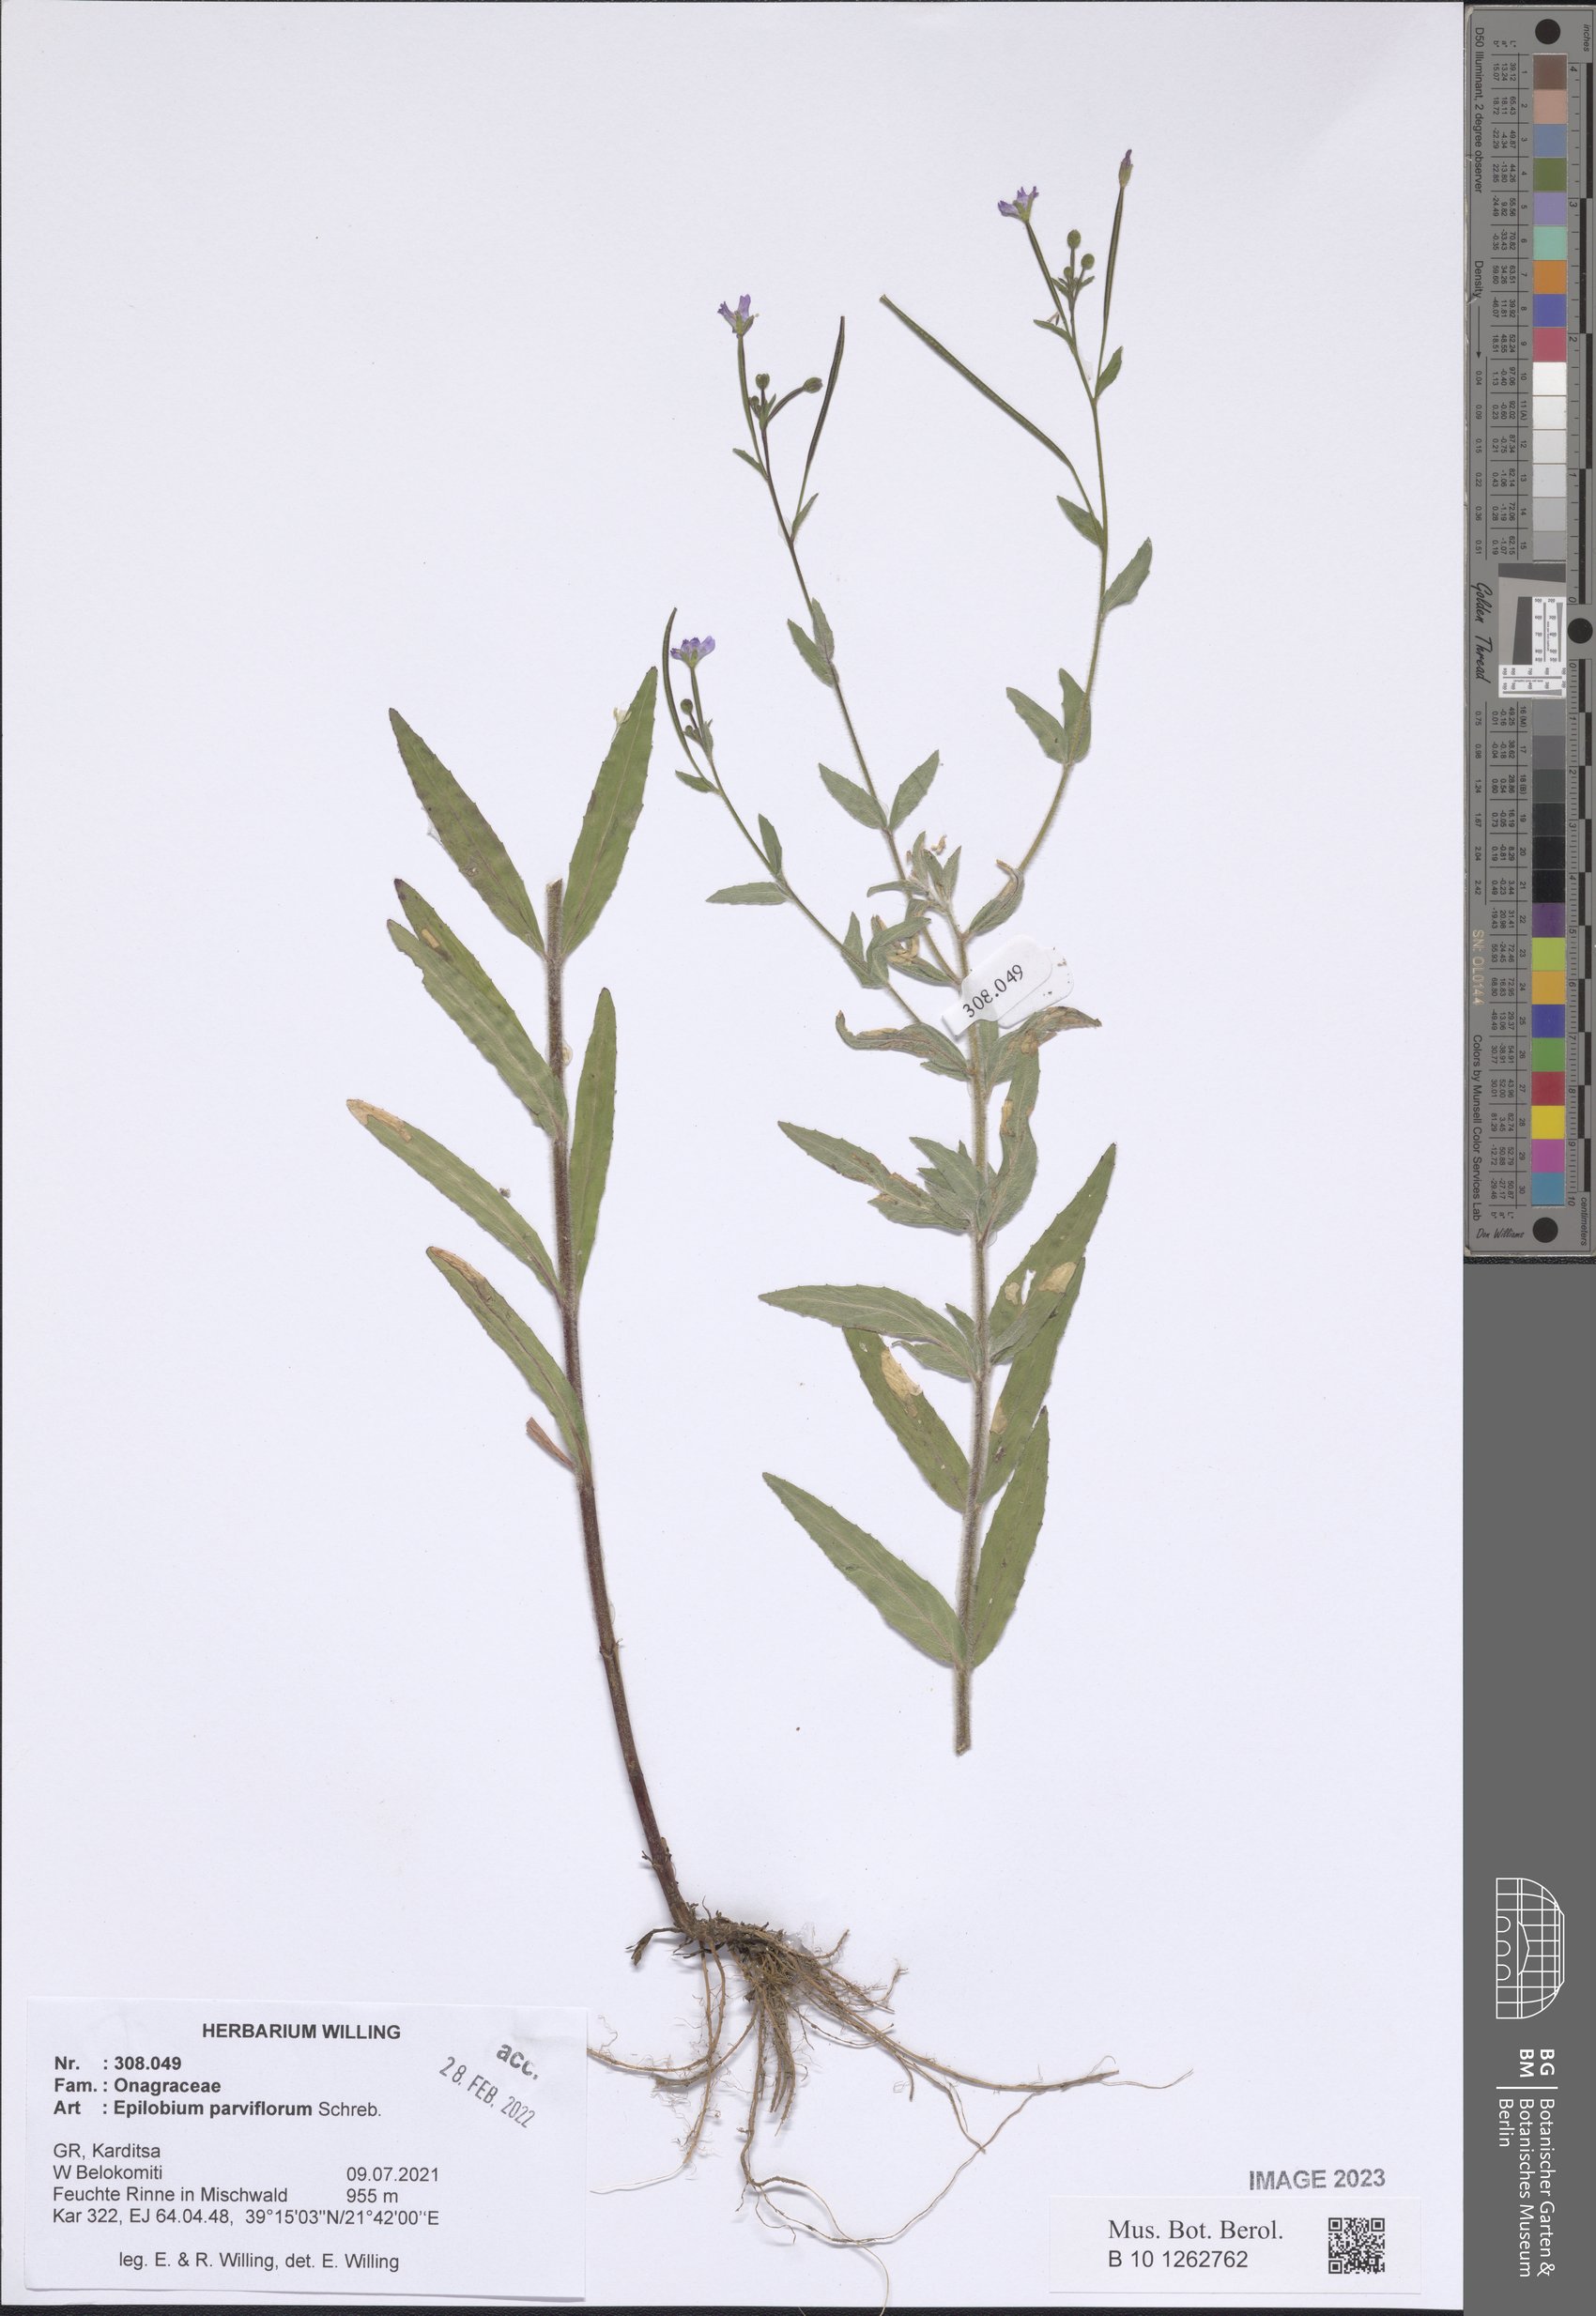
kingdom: Plantae
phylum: Tracheophyta
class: Magnoliopsida
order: Myrtales
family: Onagraceae
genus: Epilobium
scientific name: Epilobium parviflorum
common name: Hoary willowherb
